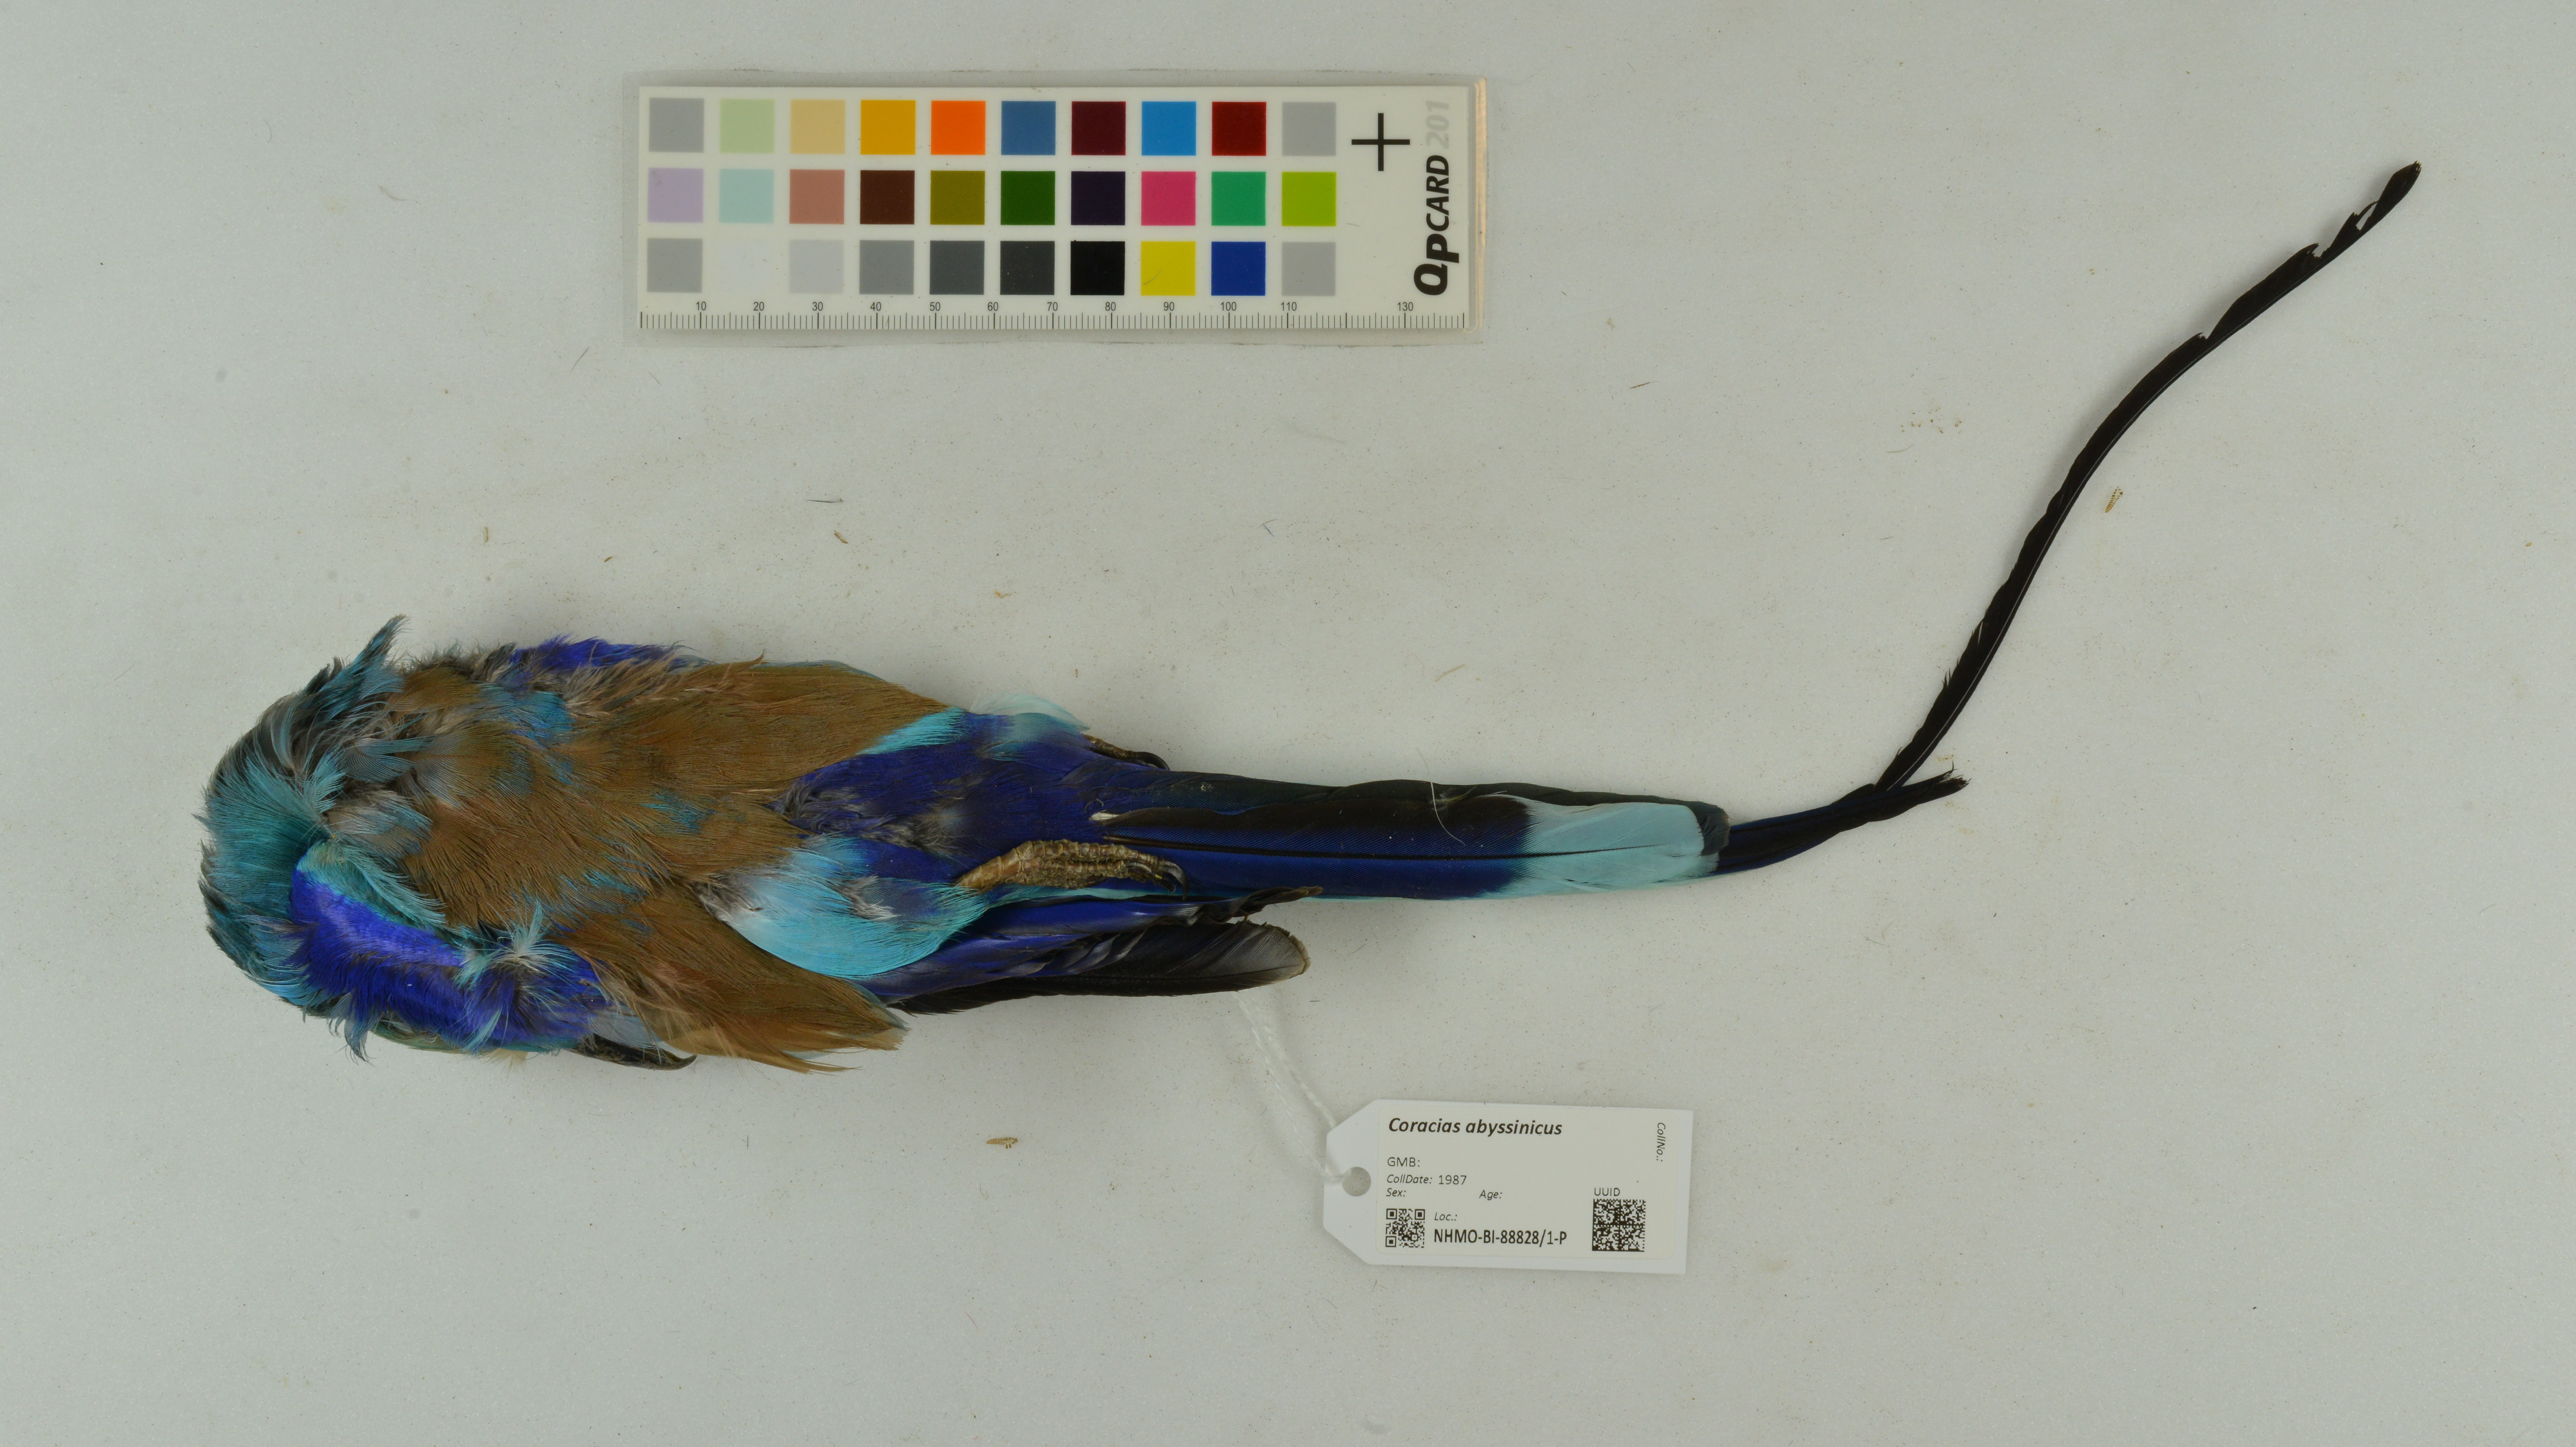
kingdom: Animalia
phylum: Chordata
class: Aves
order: Coraciiformes
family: Coraciidae
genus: Coracias
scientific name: Coracias abyssinicus
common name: Abyssinian roller
